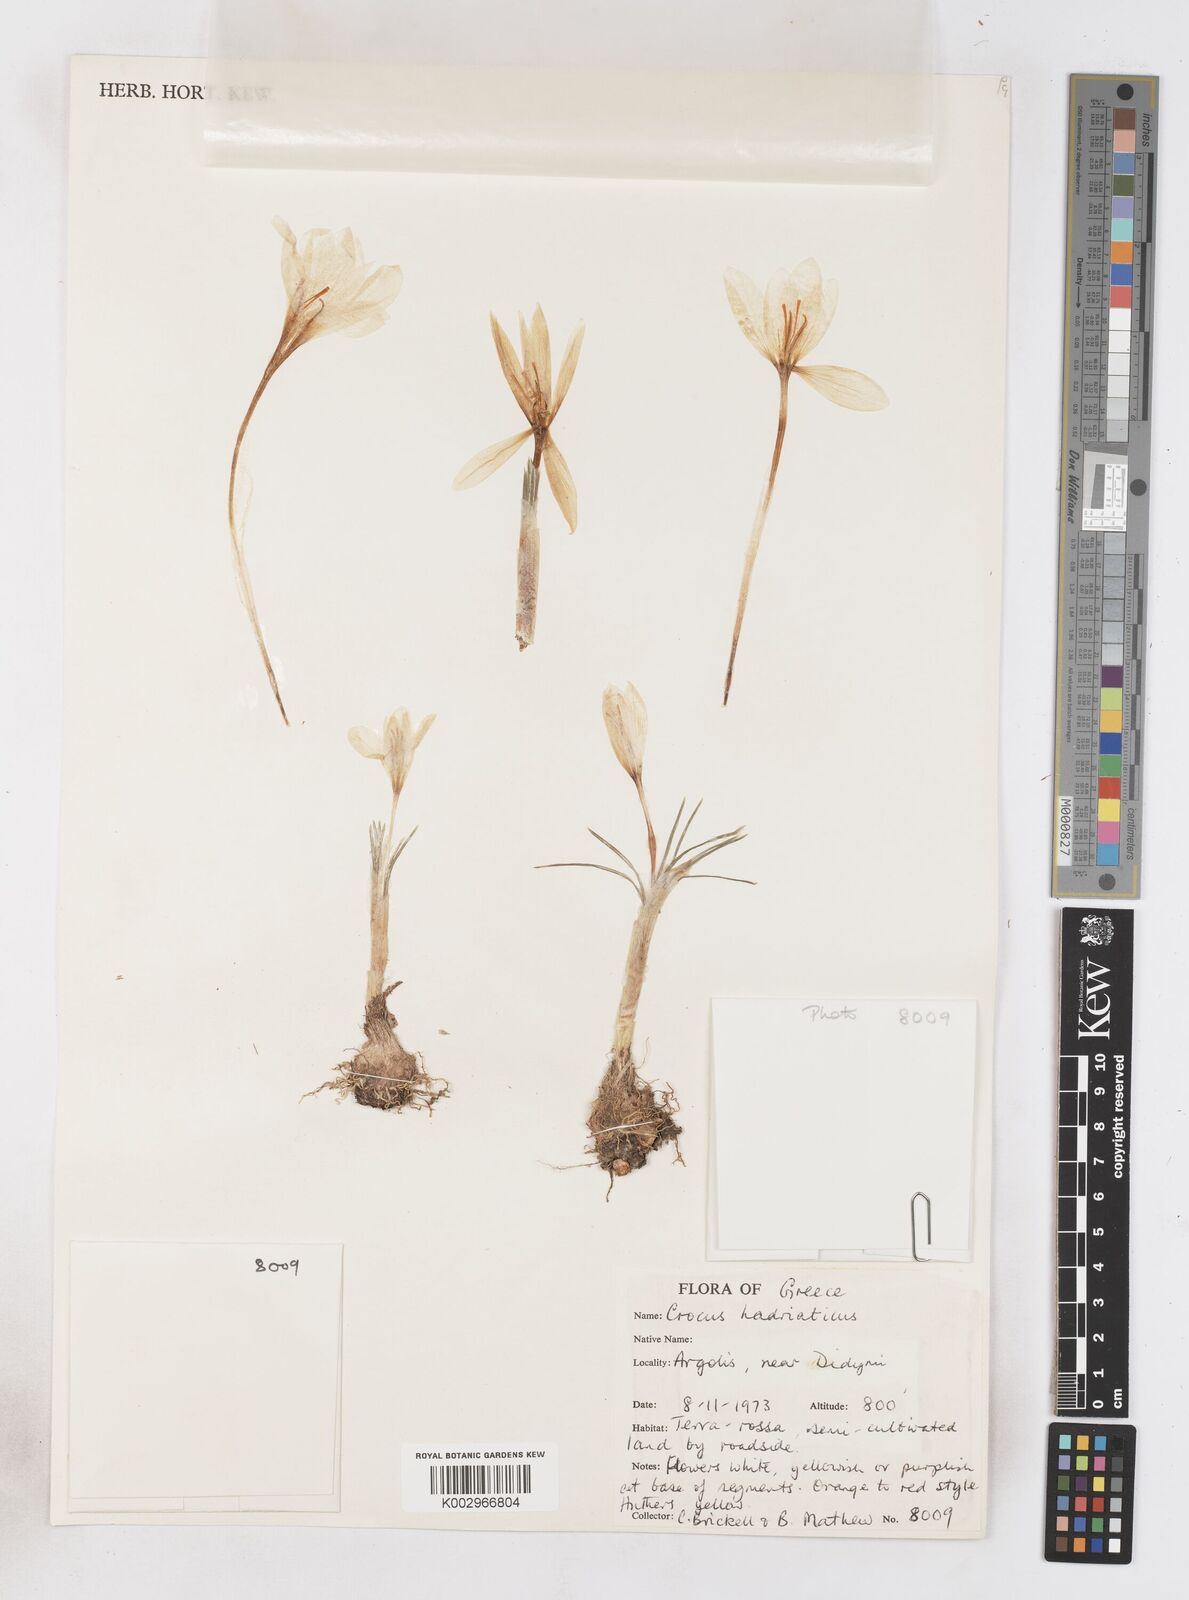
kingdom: Plantae
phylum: Tracheophyta
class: Liliopsida
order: Asparagales
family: Iridaceae
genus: Crocus
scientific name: Crocus hadriaticus
